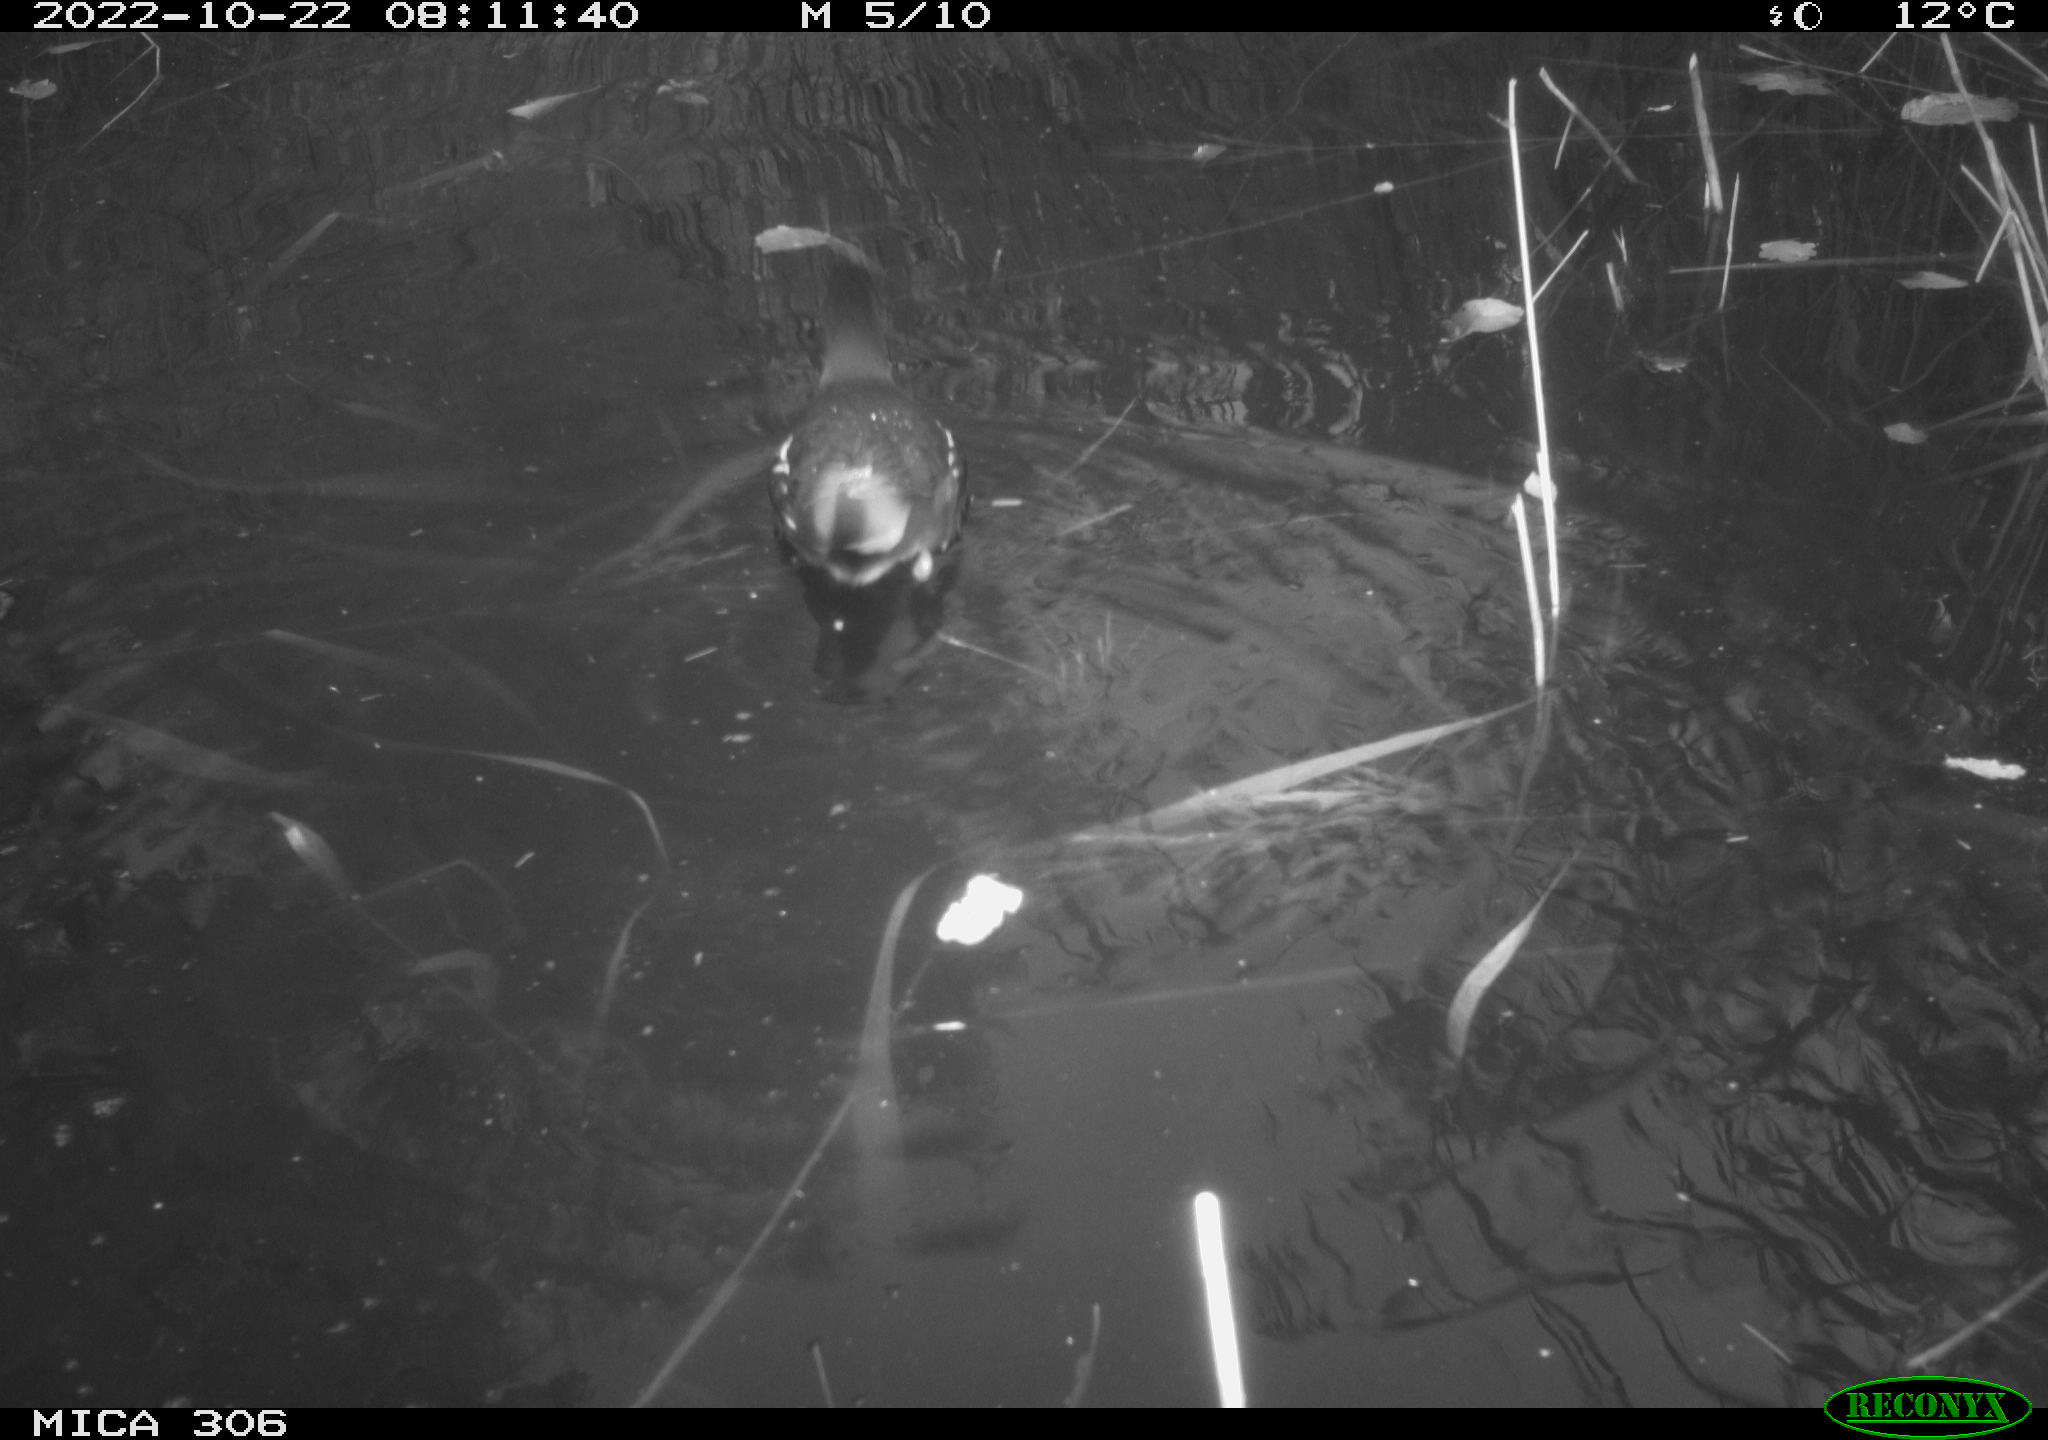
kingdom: Animalia
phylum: Chordata
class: Aves
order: Gruiformes
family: Rallidae
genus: Gallinula
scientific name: Gallinula chloropus
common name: Common moorhen
